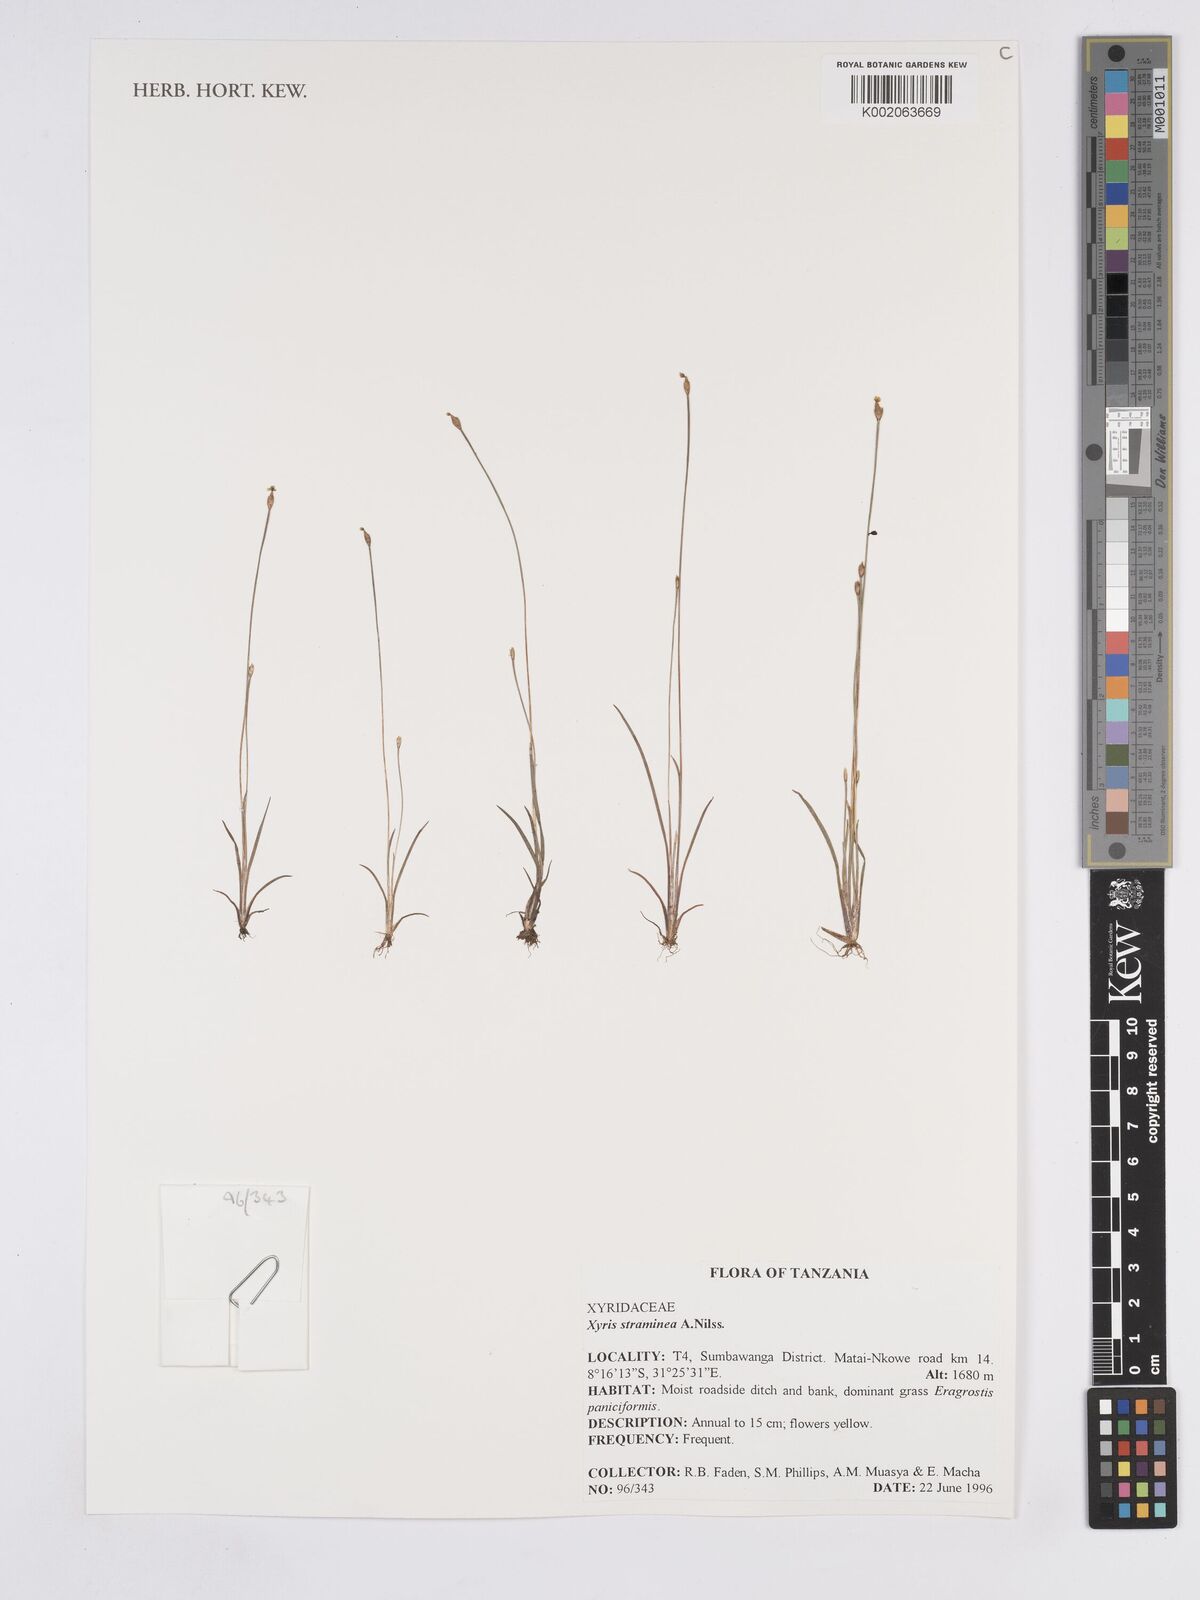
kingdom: Plantae
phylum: Tracheophyta
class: Liliopsida
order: Poales
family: Xyridaceae
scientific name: Xyridaceae
